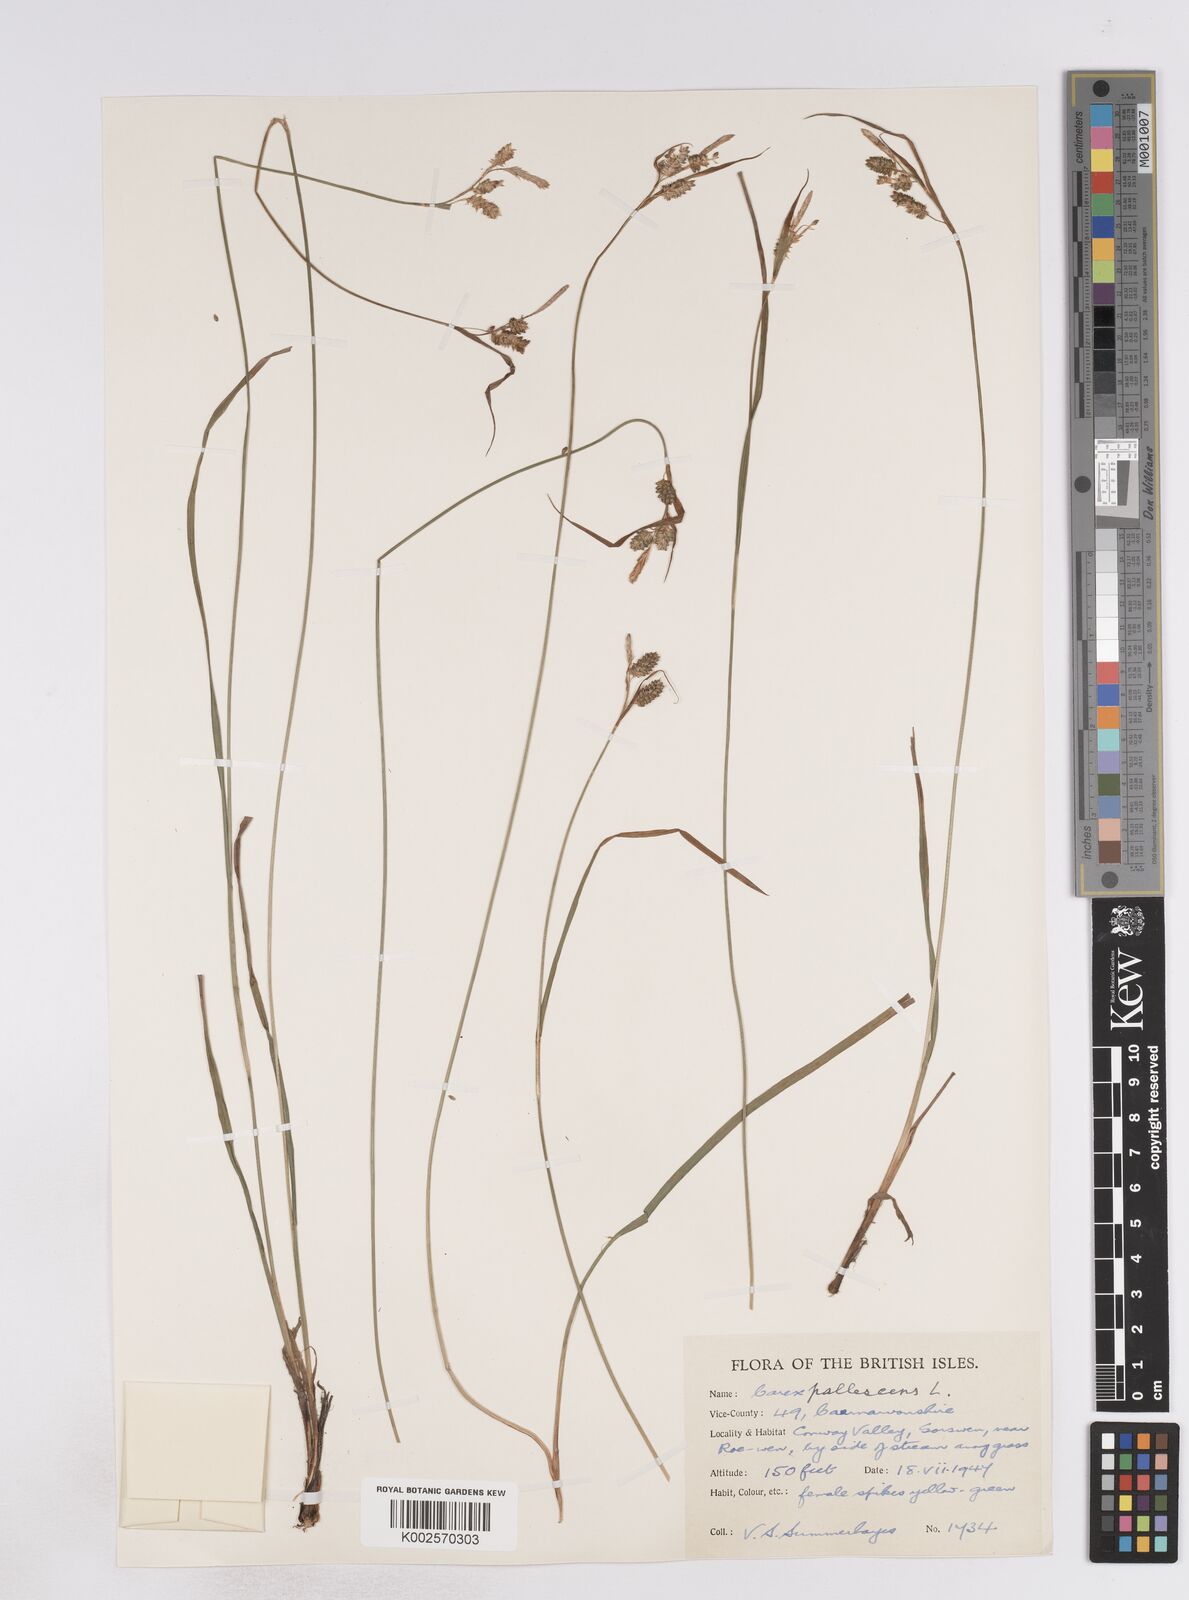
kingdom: Plantae
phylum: Tracheophyta
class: Liliopsida
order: Poales
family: Cyperaceae
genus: Carex
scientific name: Carex pallescens
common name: Pale sedge
